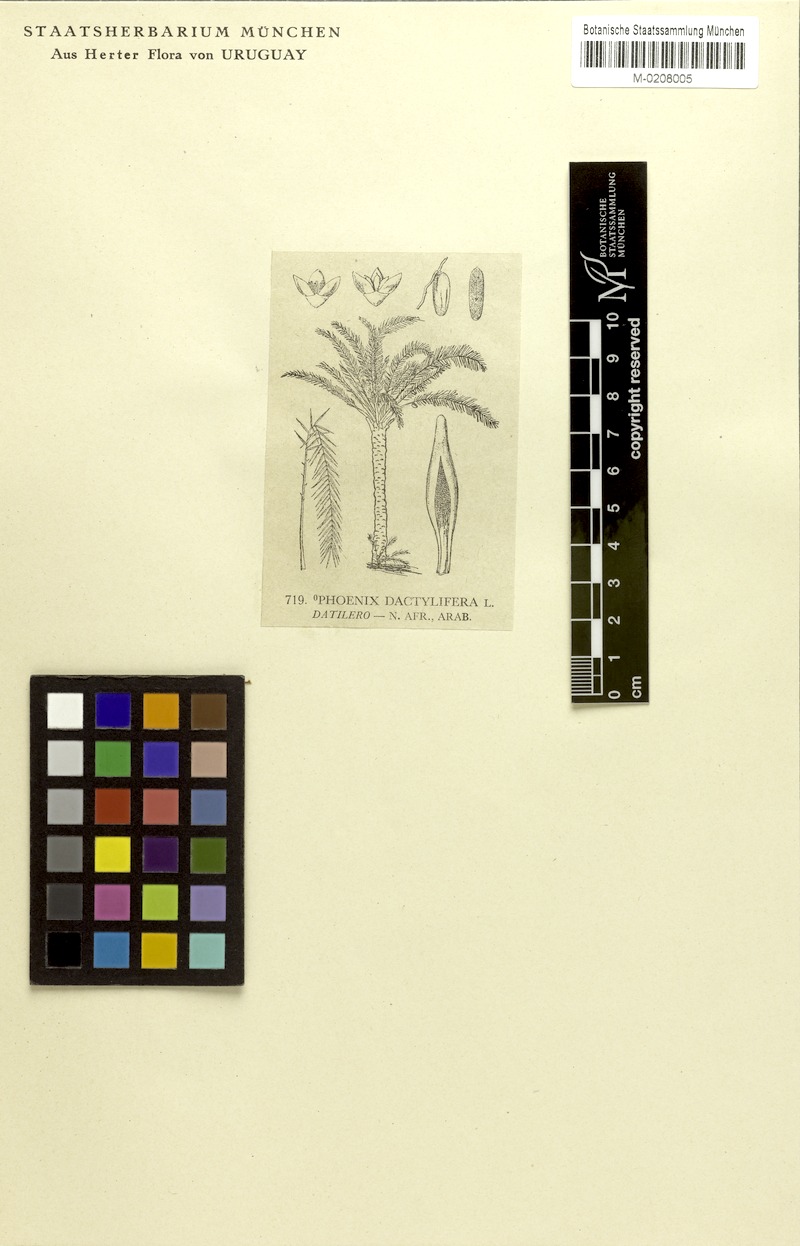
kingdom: Plantae
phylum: Tracheophyta
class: Liliopsida
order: Arecales
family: Arecaceae
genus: Phoenix
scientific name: Phoenix dactylifera
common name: Date palm
